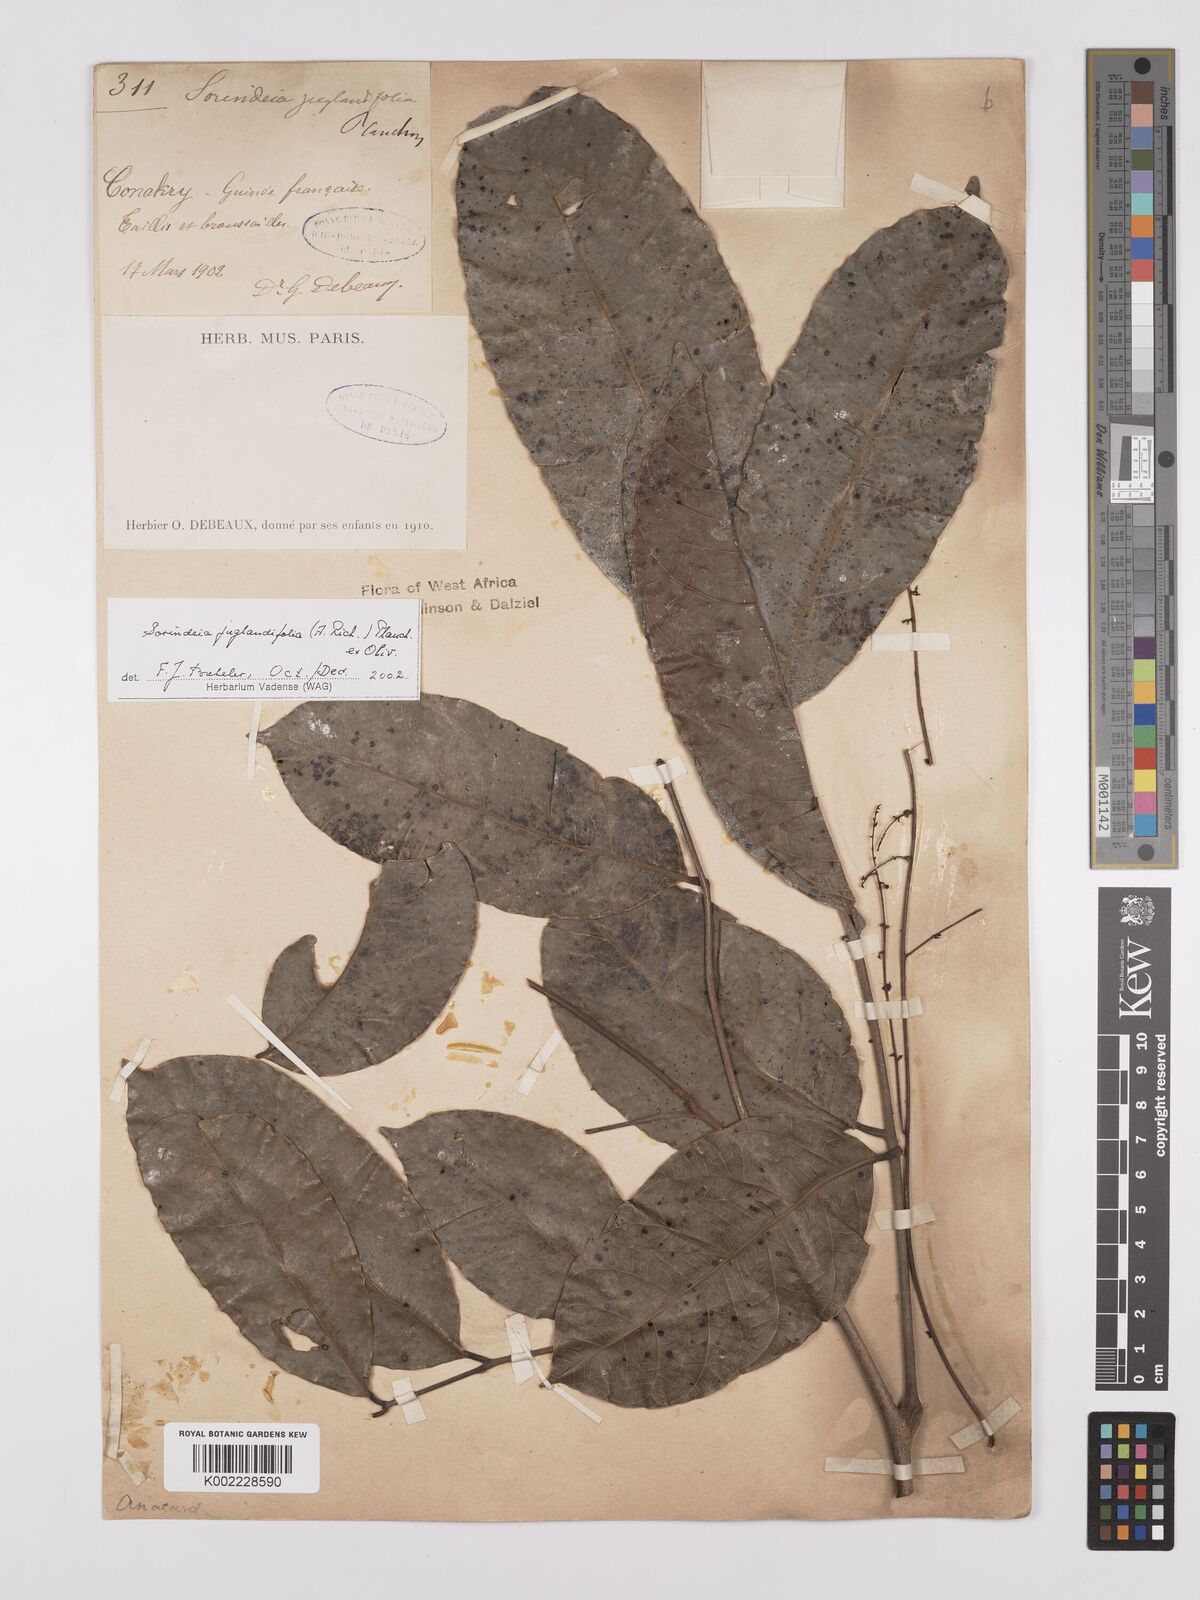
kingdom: Plantae
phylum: Tracheophyta
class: Magnoliopsida
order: Sapindales
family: Anacardiaceae
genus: Sorindeia
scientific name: Sorindeia juglandifolia
